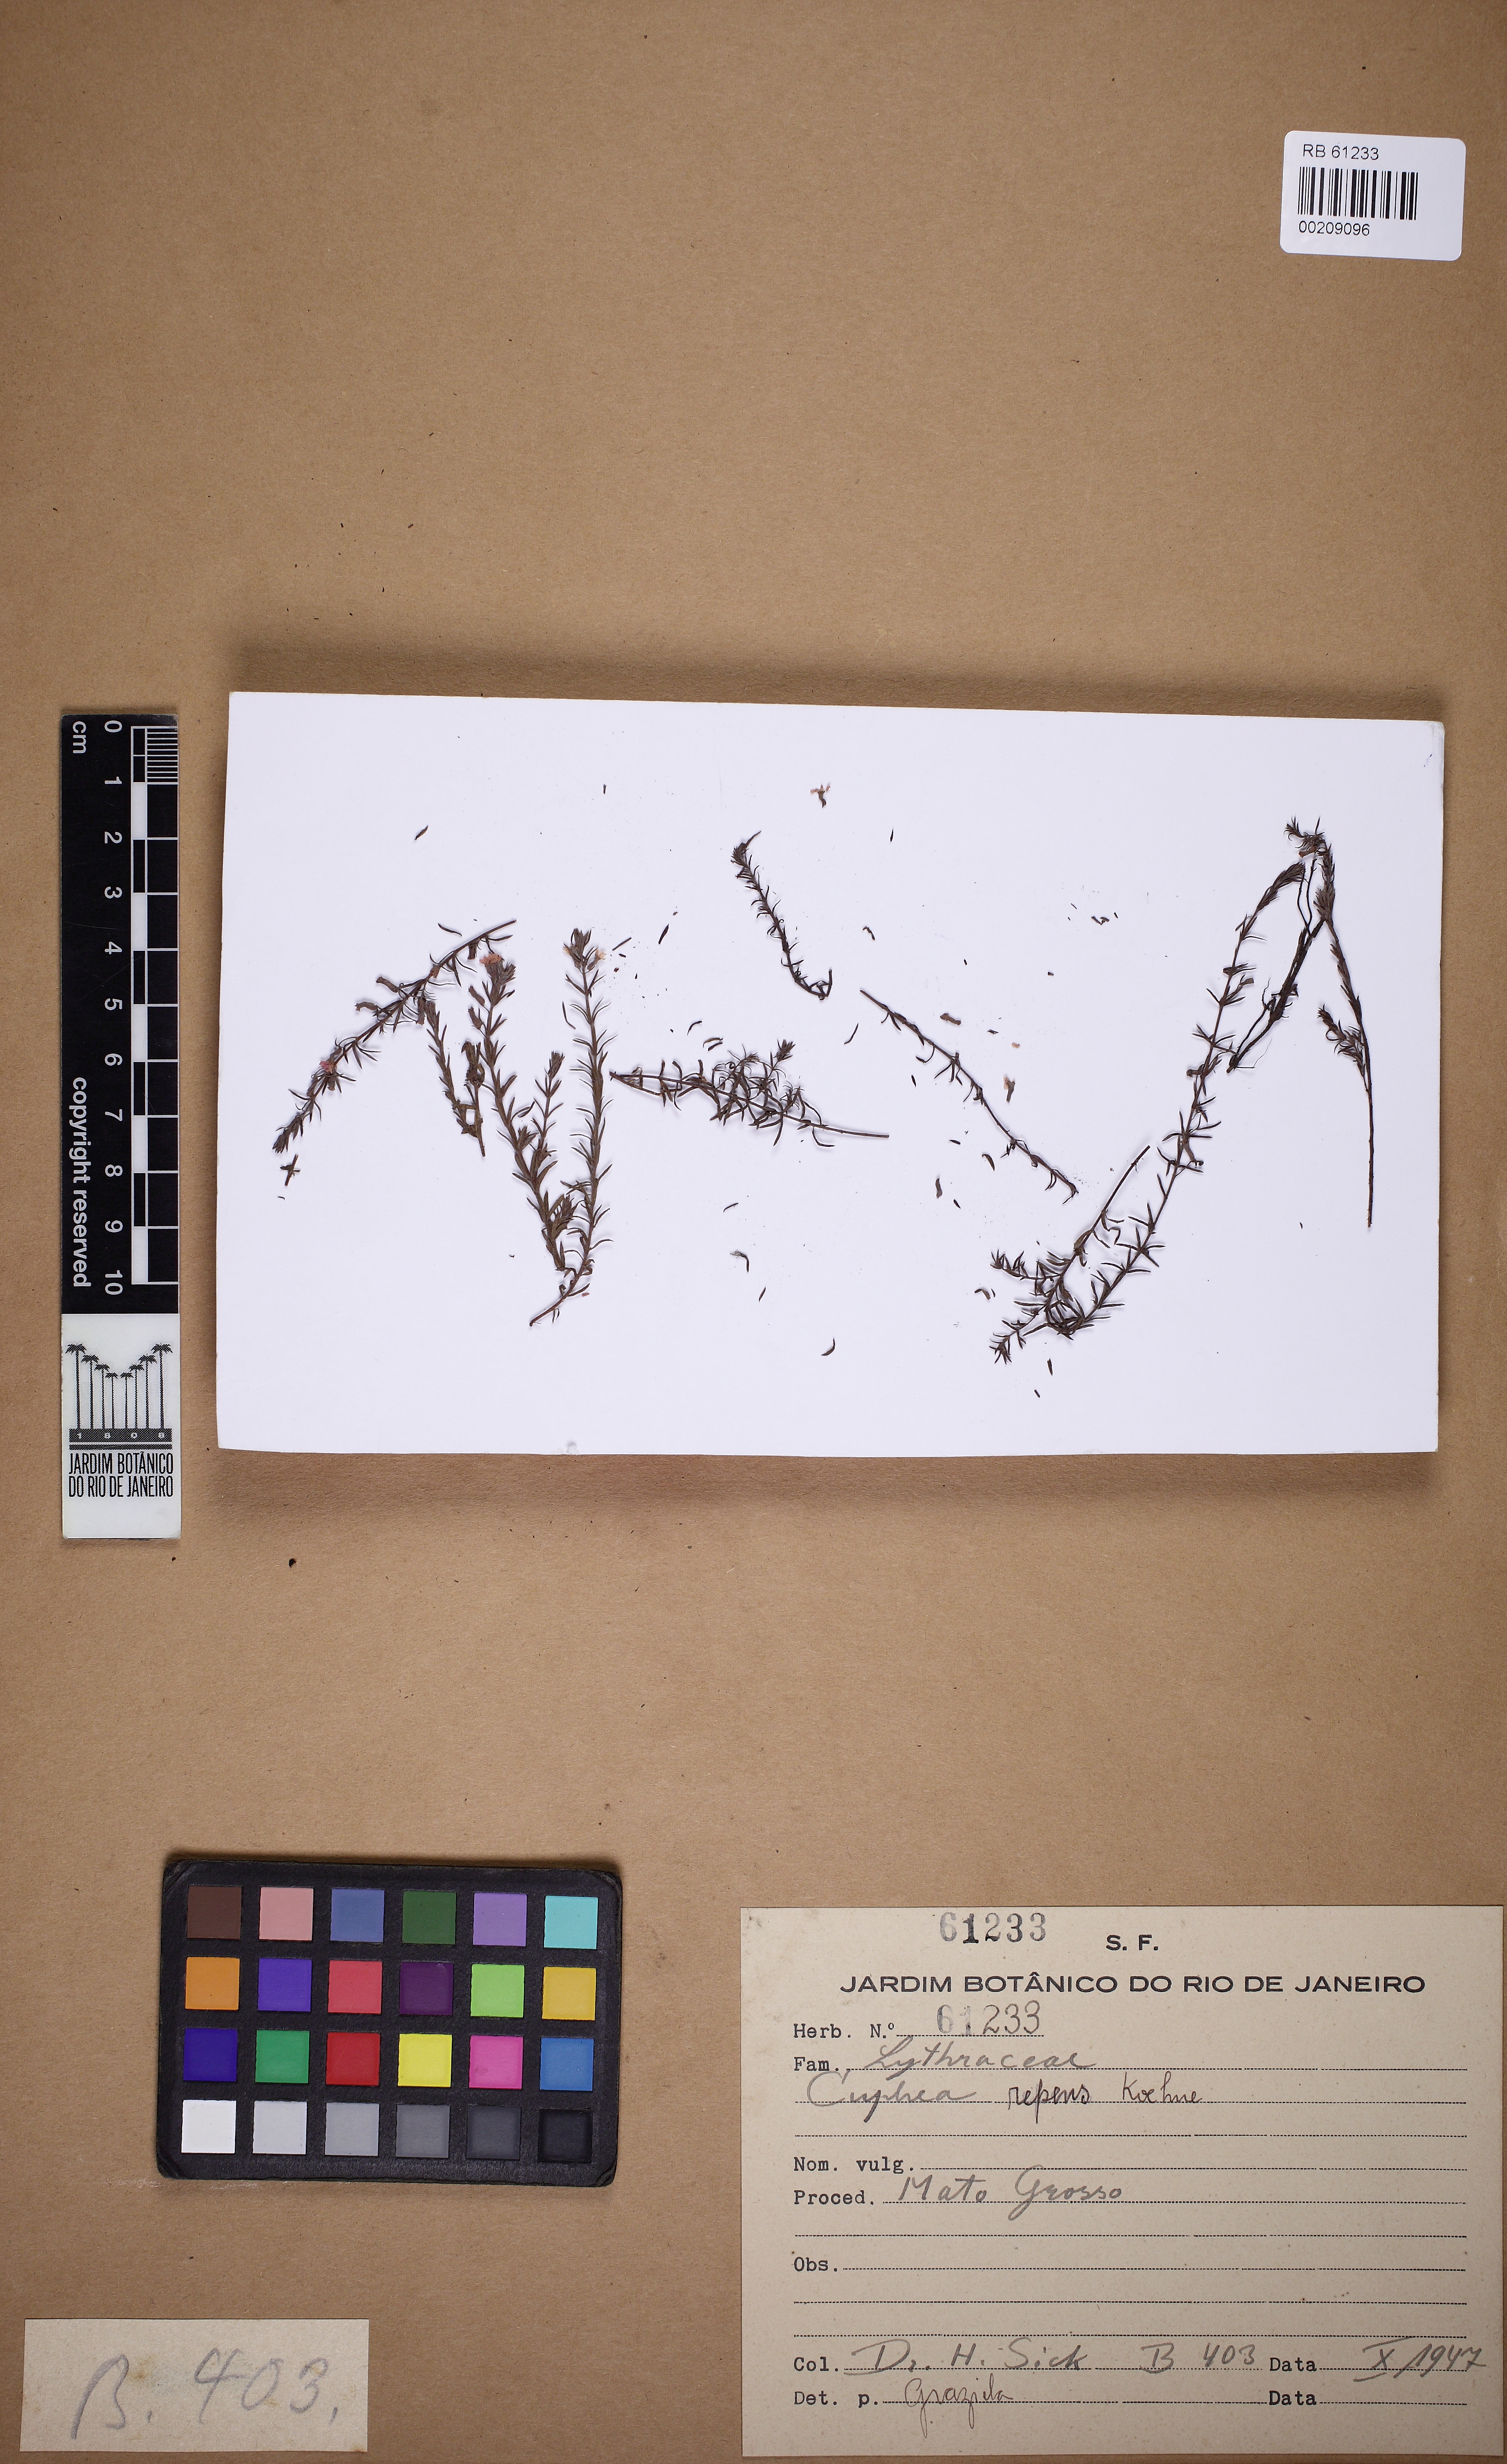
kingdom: Plantae
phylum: Tracheophyta
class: Magnoliopsida
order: Myrtales
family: Lythraceae
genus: Cuphea
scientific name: Cuphea repens
